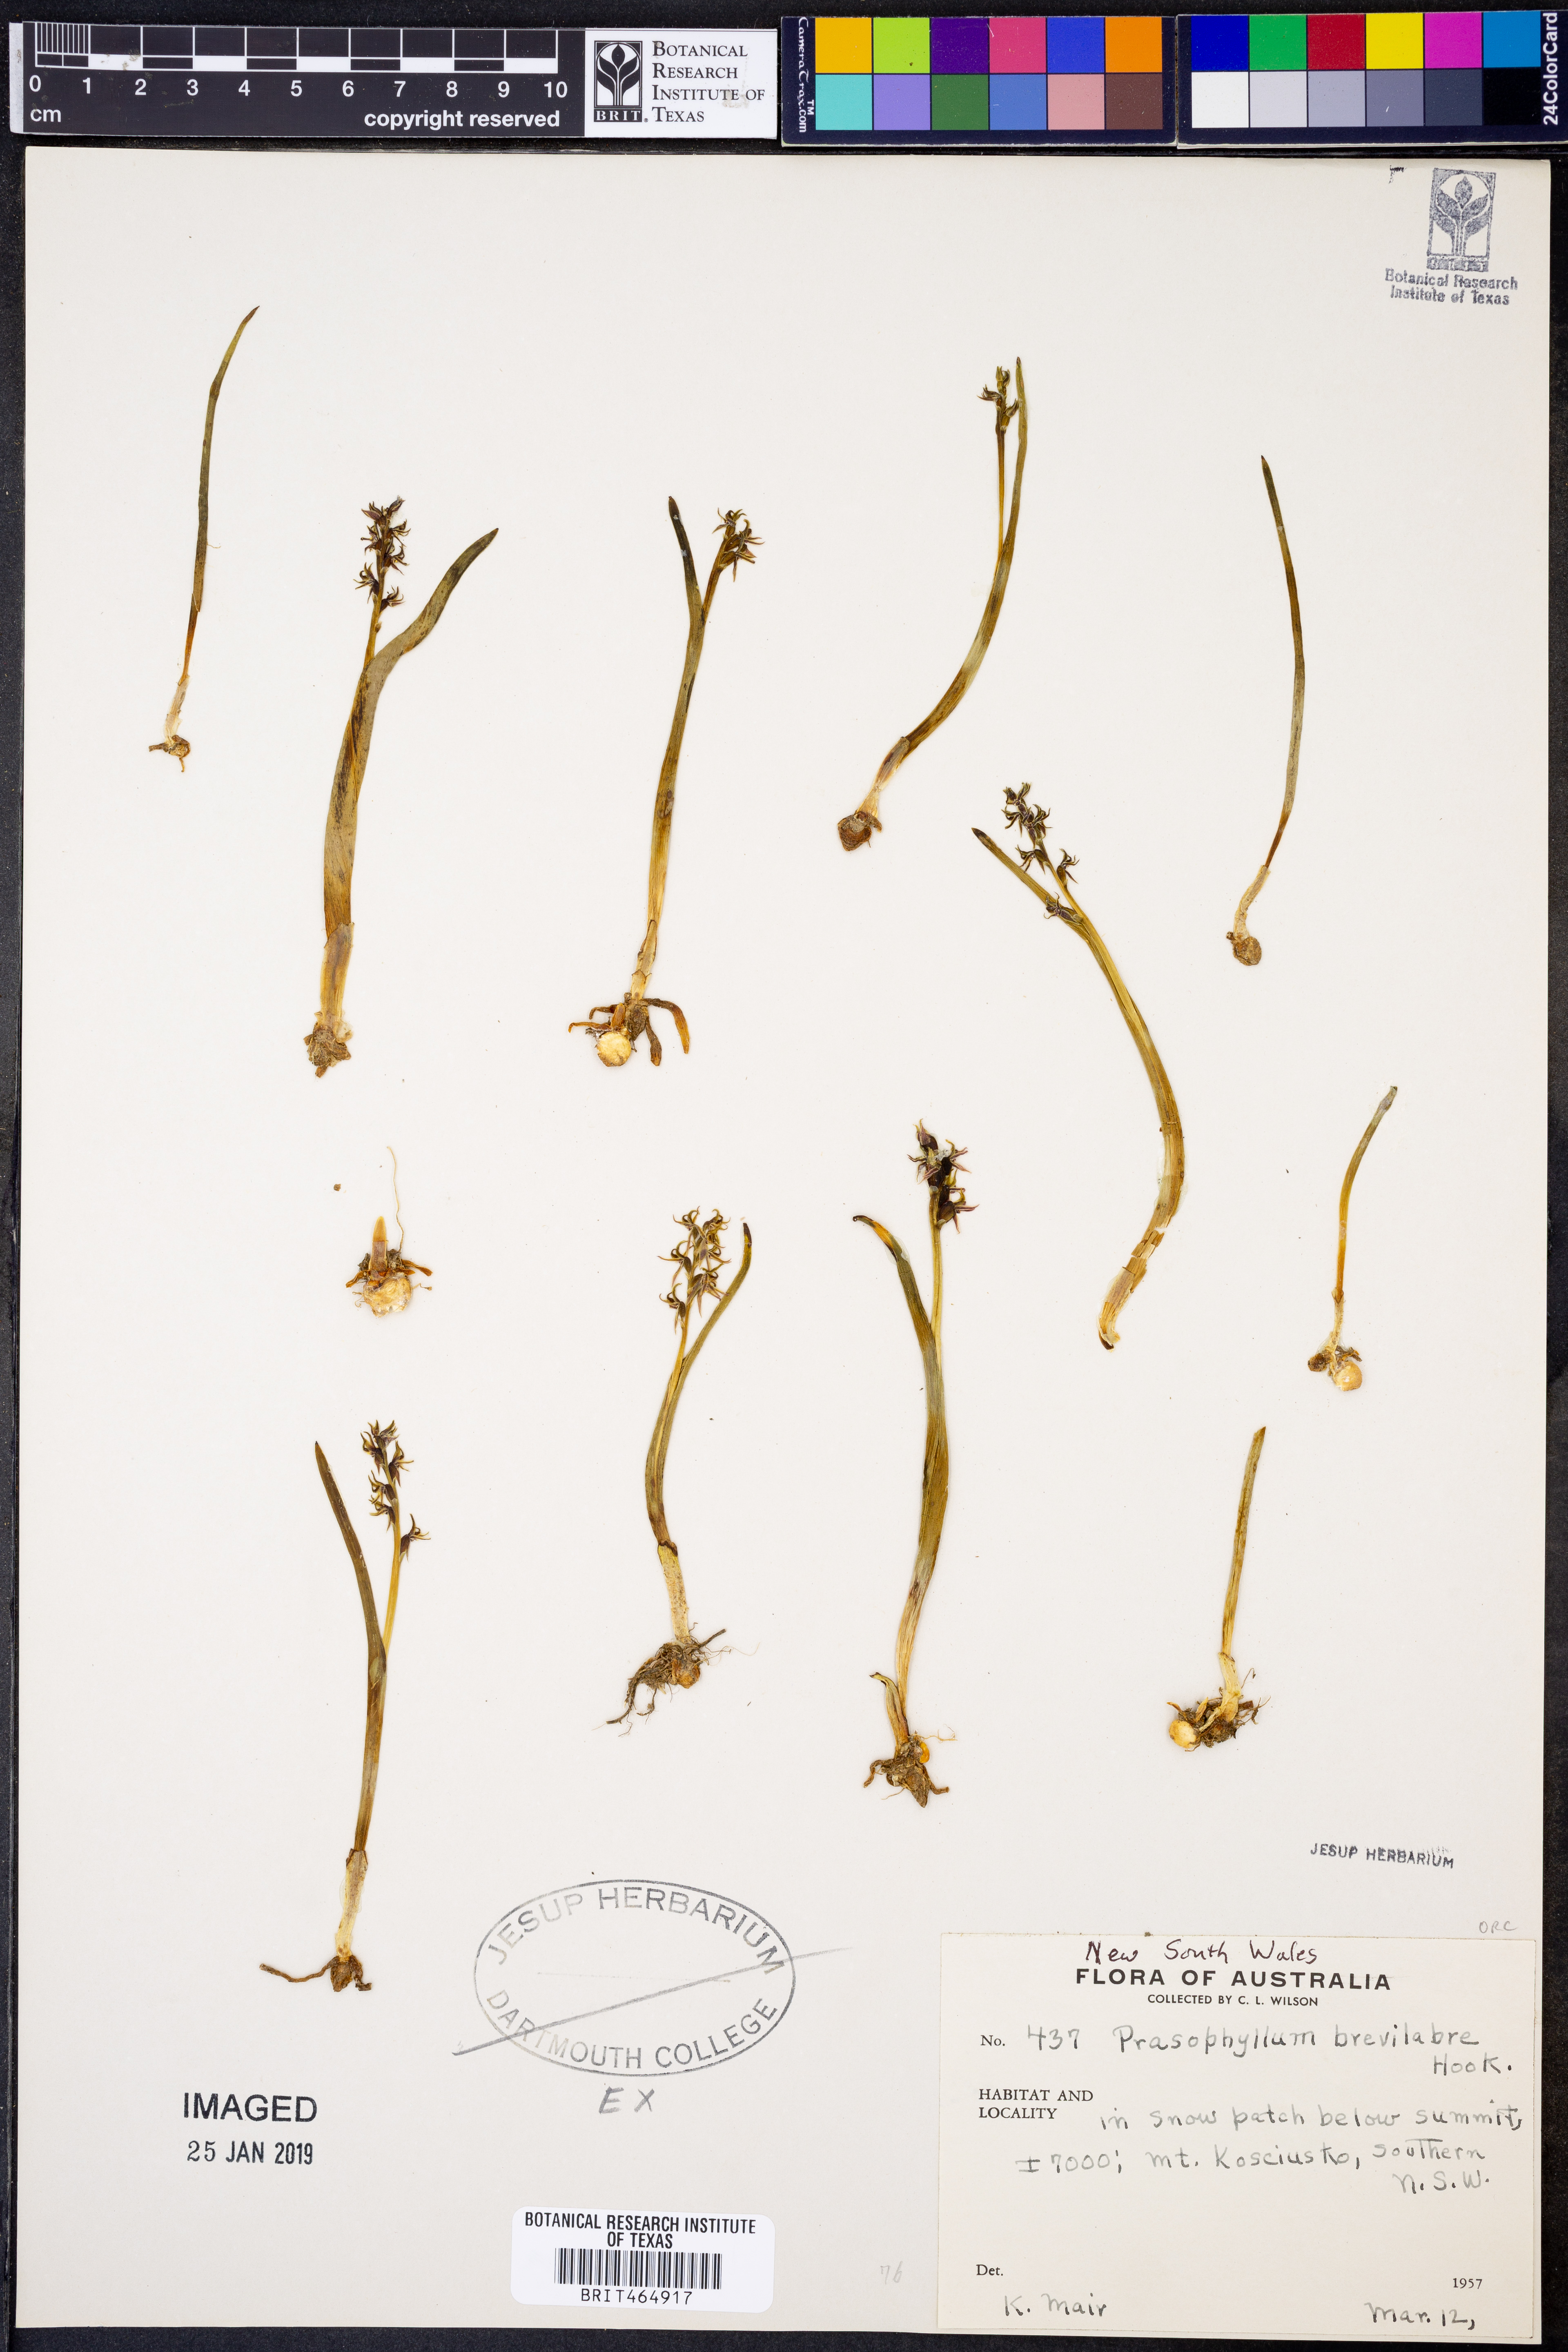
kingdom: Plantae
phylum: Tracheophyta
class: Liliopsida
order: Asparagales
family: Orchidaceae
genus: Prasophyllum
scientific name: Prasophyllum brevilabre
